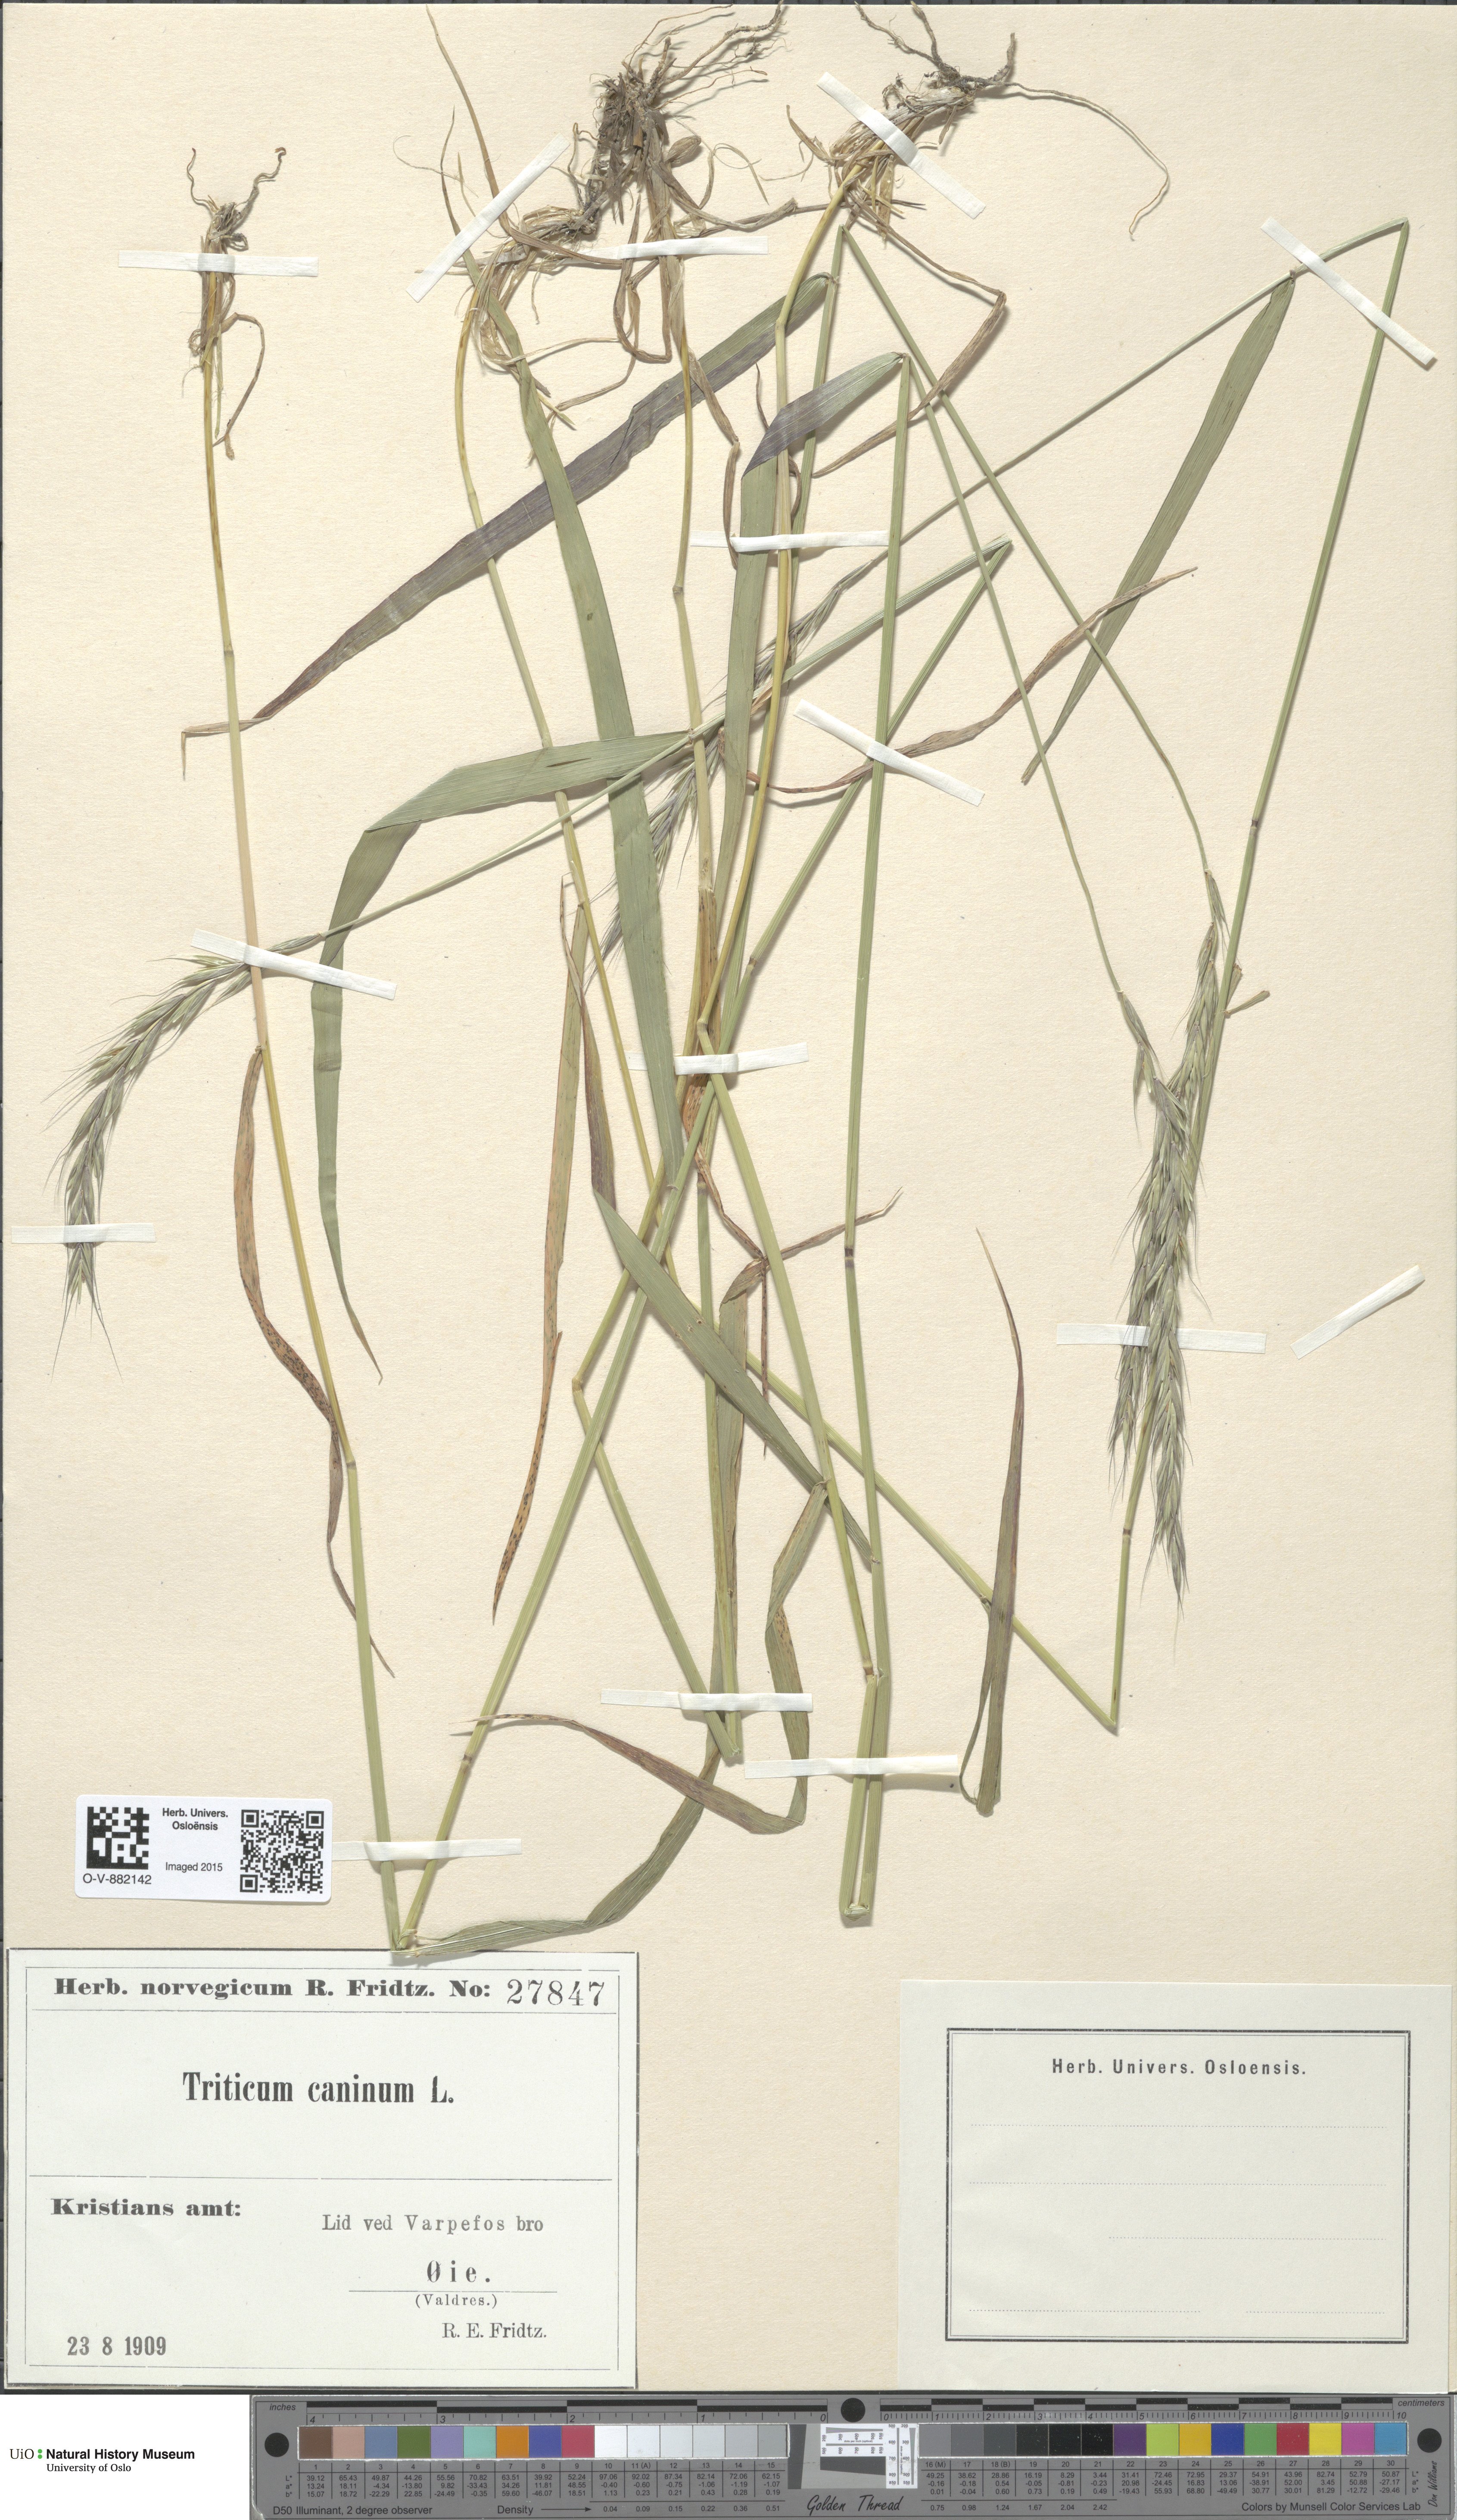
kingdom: Plantae
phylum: Tracheophyta
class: Liliopsida
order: Poales
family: Poaceae
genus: Elymus
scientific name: Elymus caninus
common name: Bearded couch
